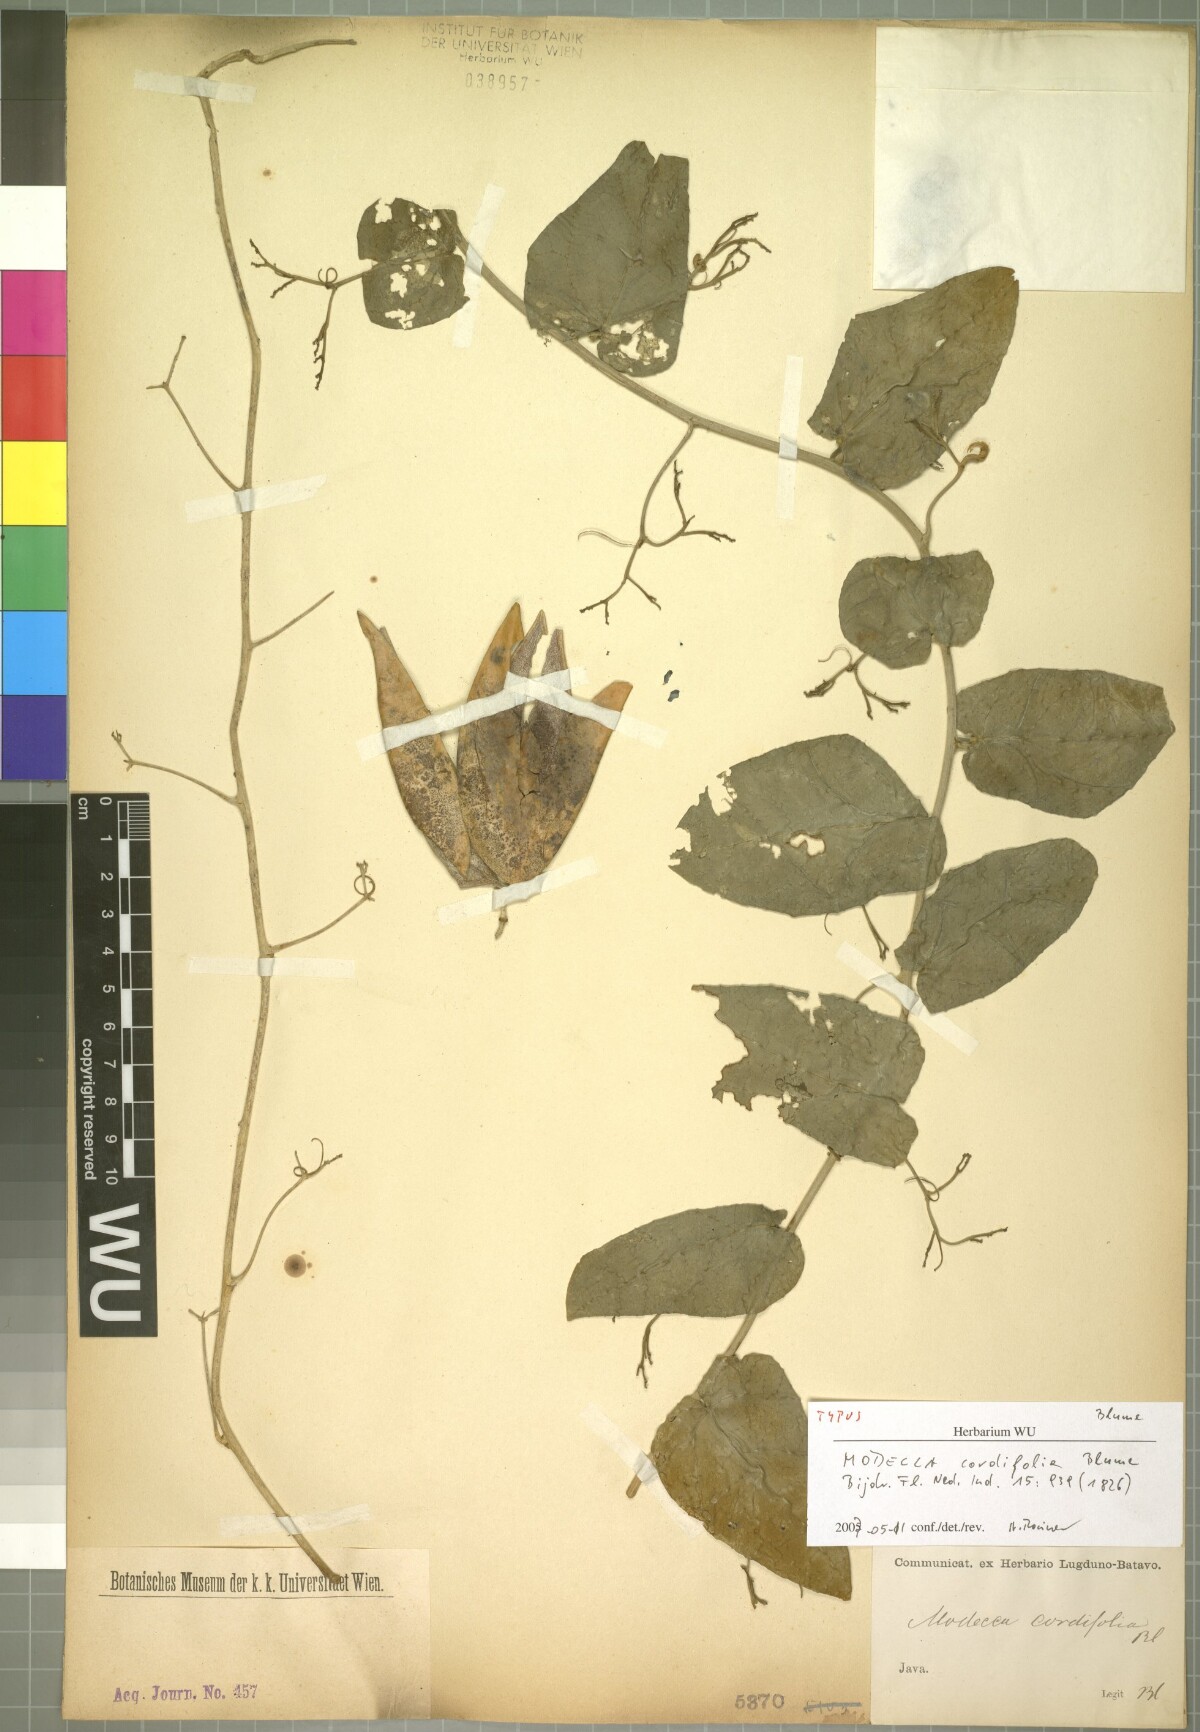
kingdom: Plantae
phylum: Tracheophyta
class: Magnoliopsida
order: Malpighiales
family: Passifloraceae
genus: Adenia
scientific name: Adenia cordifolia
